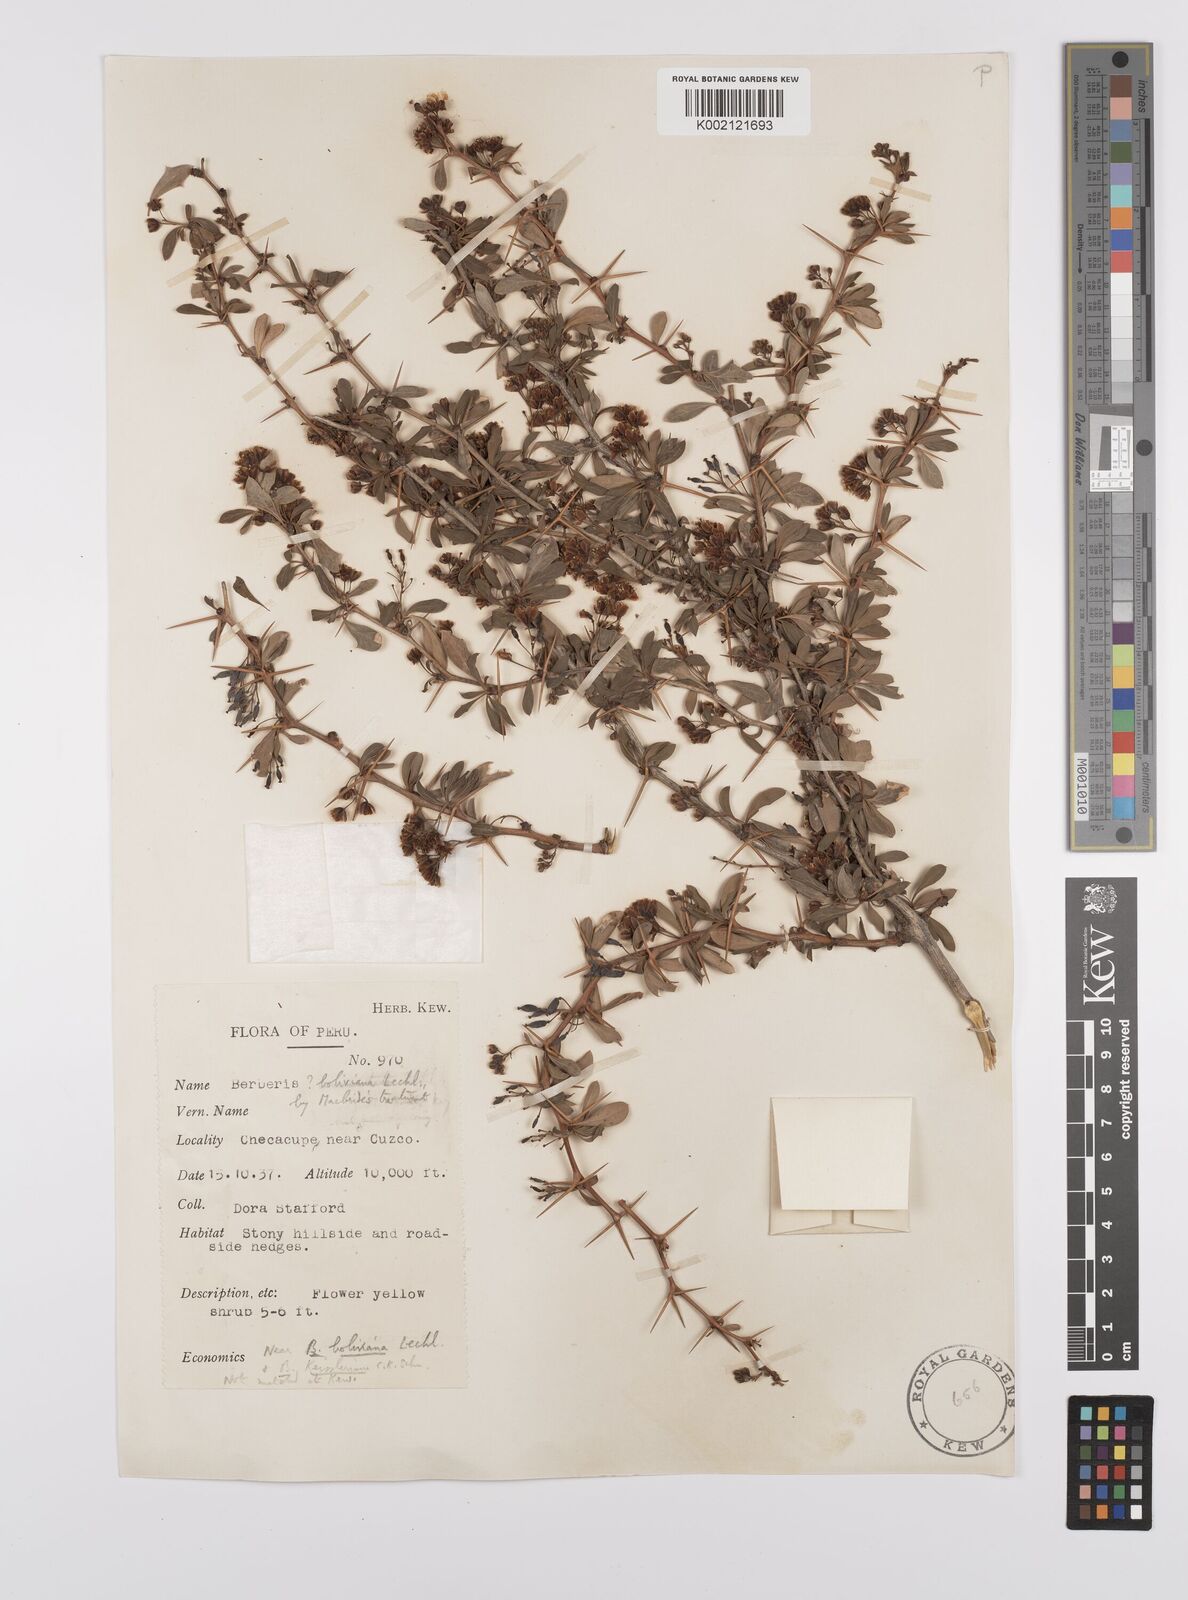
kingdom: Plantae
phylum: Tracheophyta
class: Magnoliopsida
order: Ranunculales
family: Berberidaceae
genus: Berberis
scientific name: Berberis boliviana
